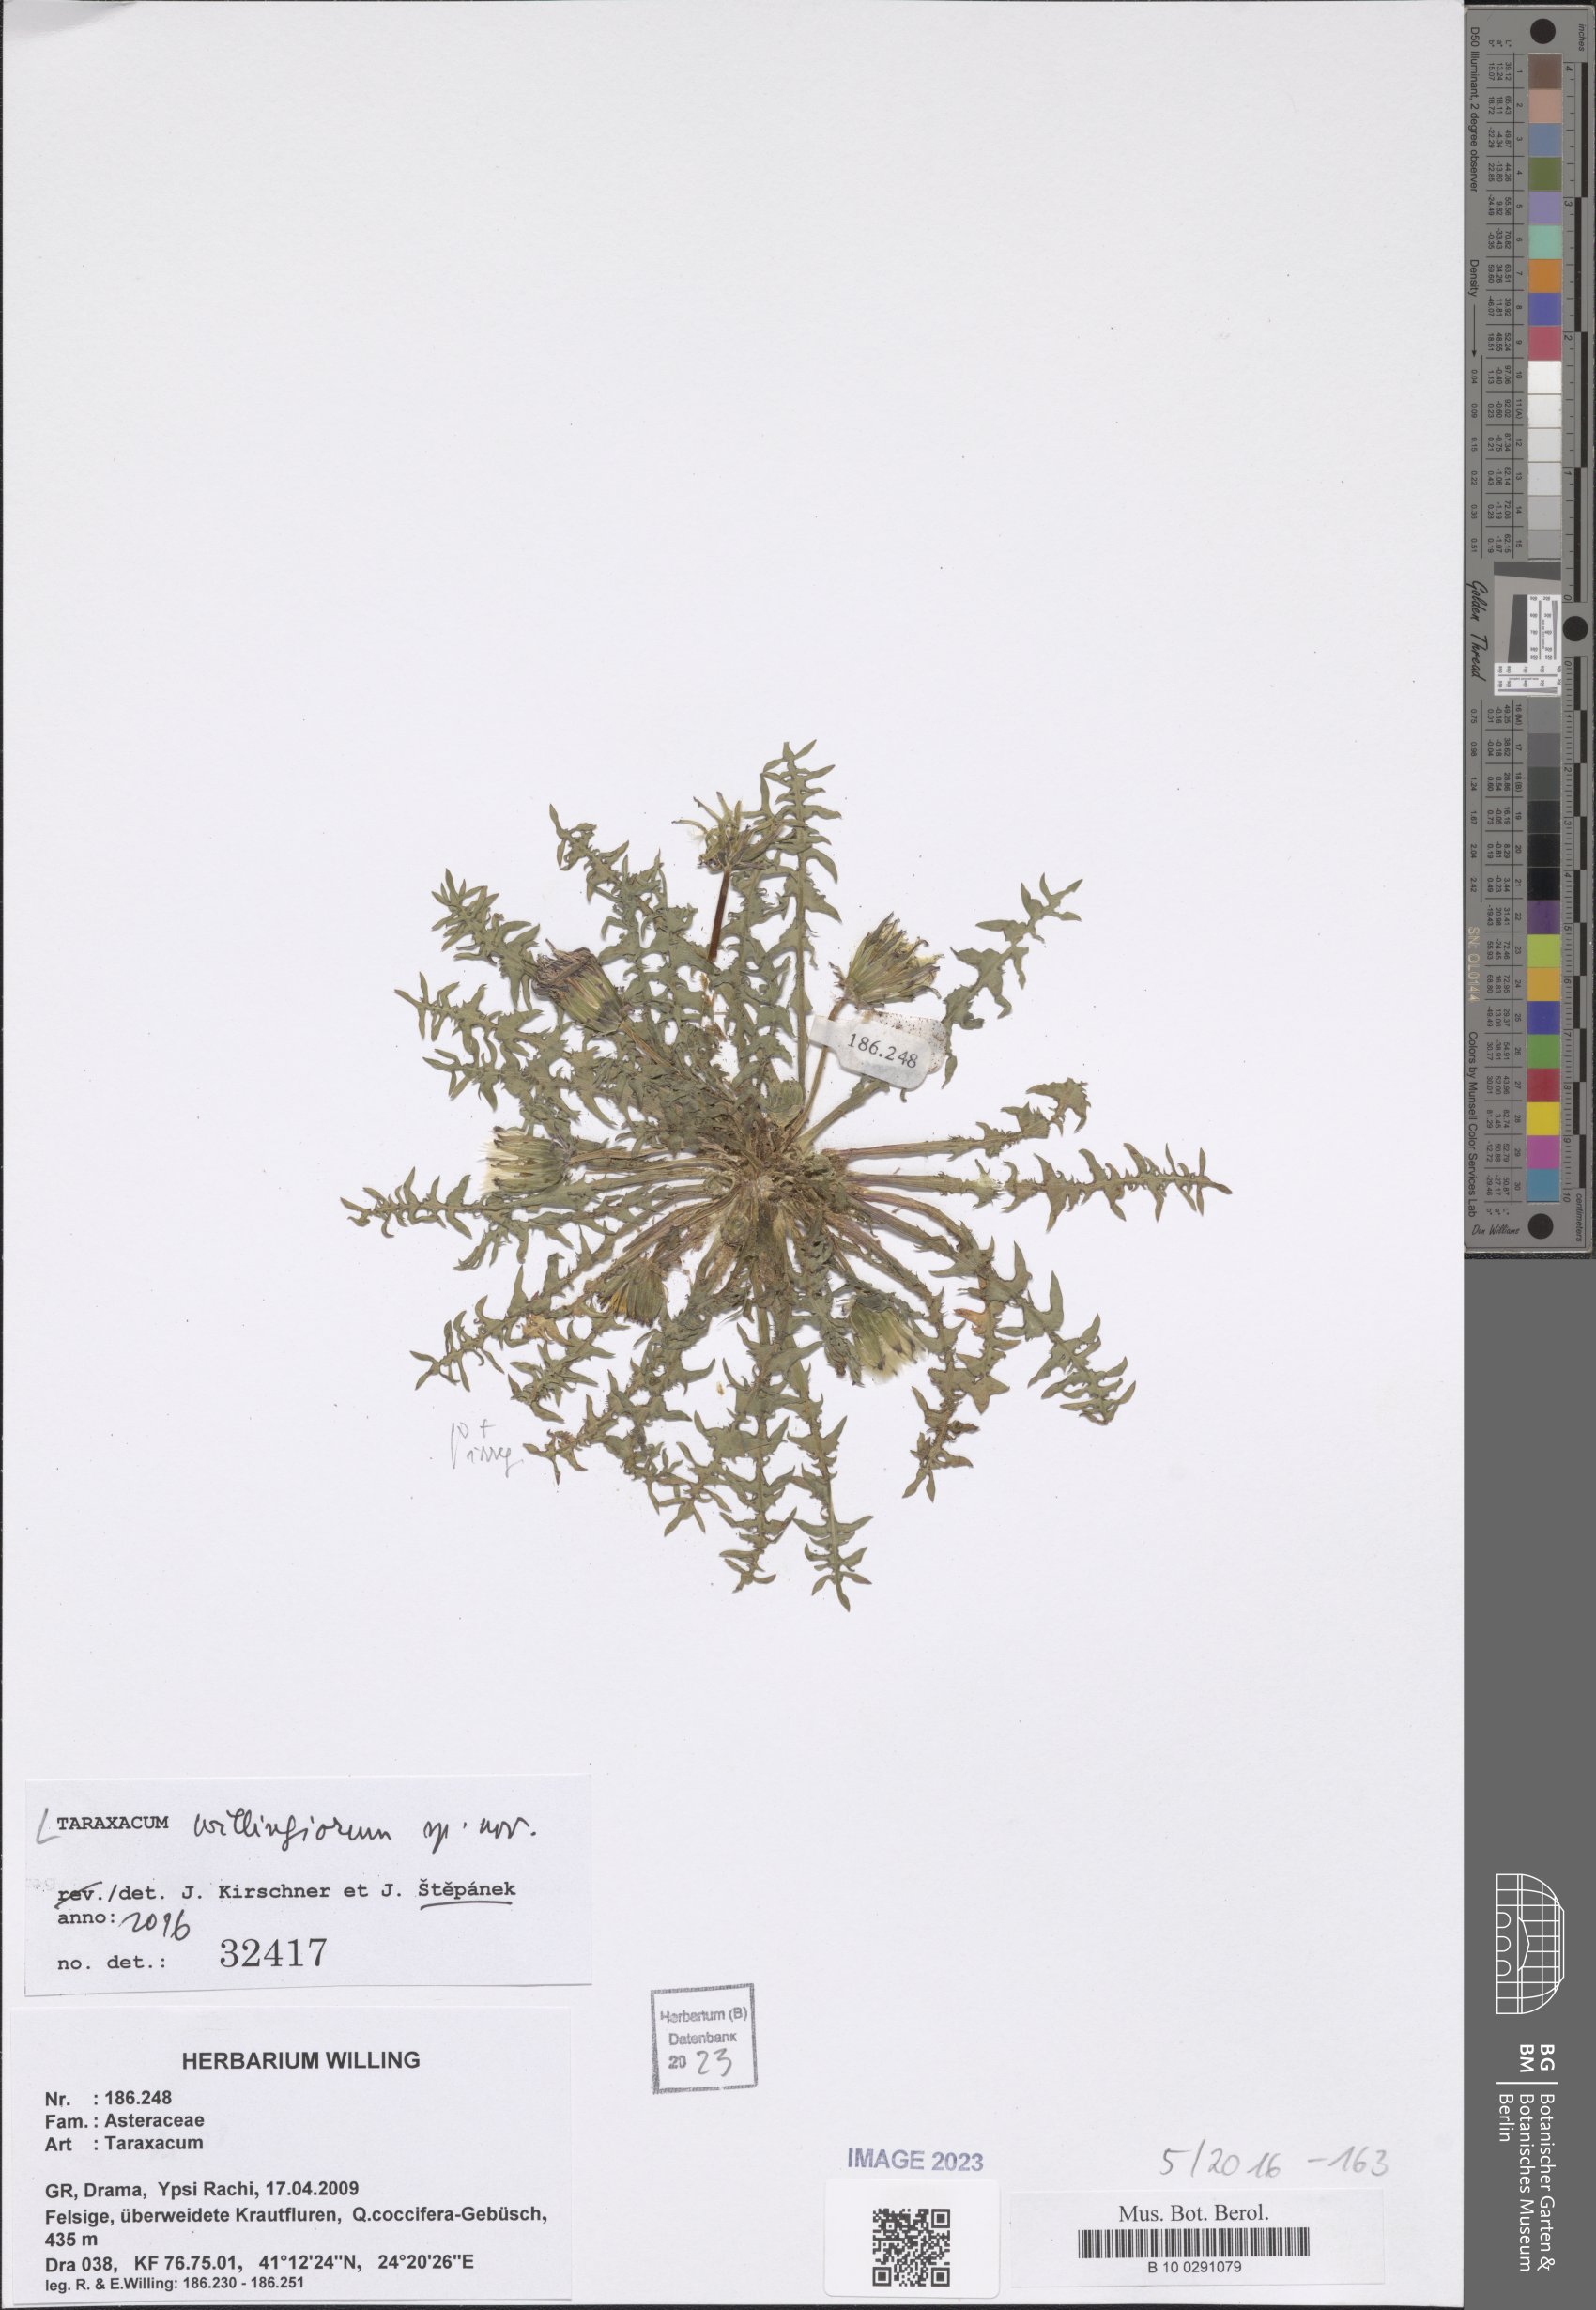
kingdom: Plantae
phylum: Tracheophyta
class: Magnoliopsida
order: Asterales
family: Asteraceae
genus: Taraxacum
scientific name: Taraxacum
